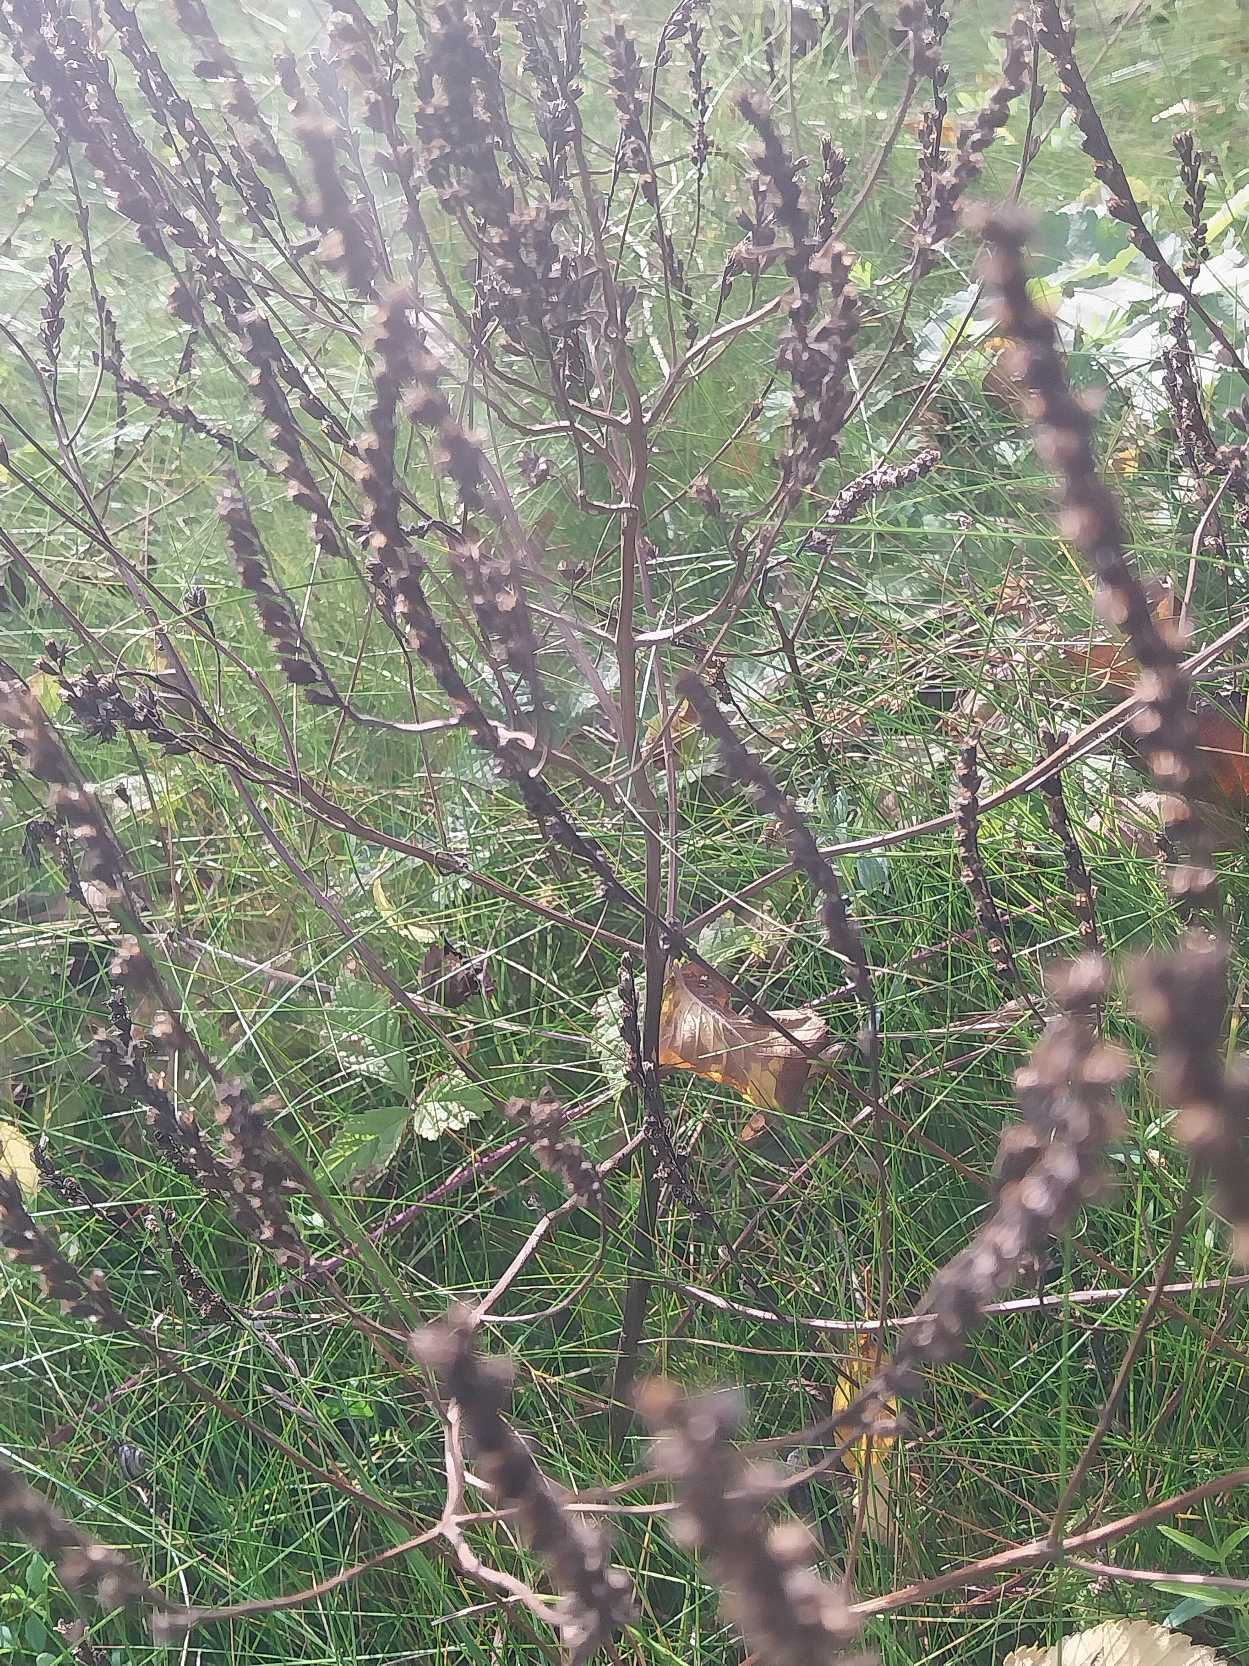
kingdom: Plantae
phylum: Tracheophyta
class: Magnoliopsida
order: Lamiales
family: Orobanchaceae
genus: Odontites
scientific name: Odontites vulgaris
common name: Høst-rødtop
